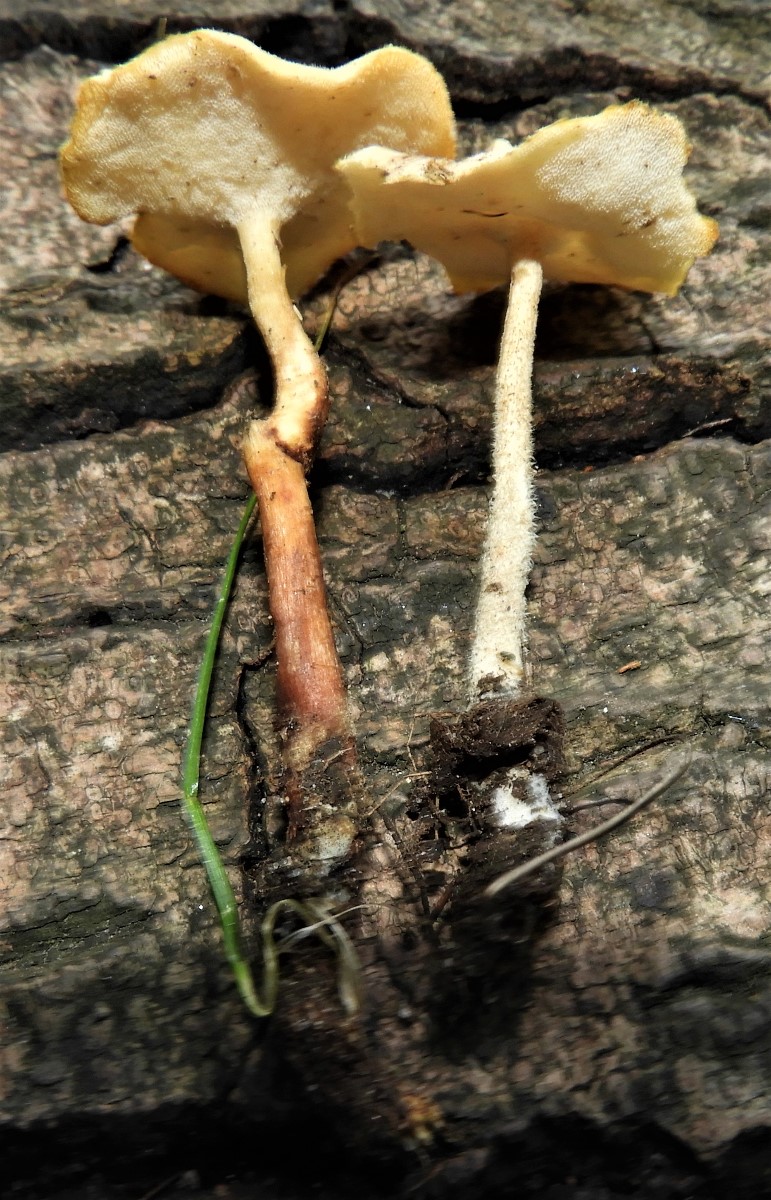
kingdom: Fungi
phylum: Basidiomycota
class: Agaricomycetes
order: Polyporales
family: Polyporaceae
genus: Lentinus
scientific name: Lentinus substrictus
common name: forårs-stilkporesvamp
